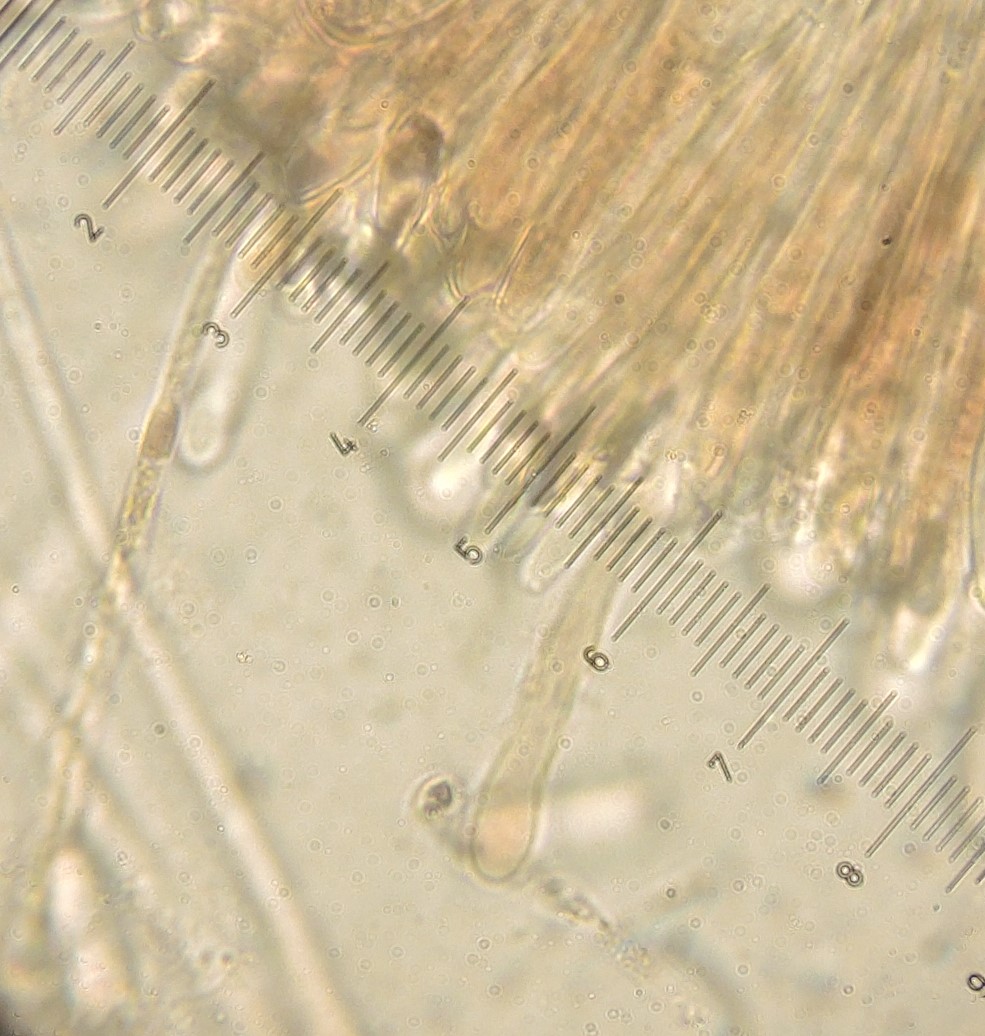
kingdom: Fungi
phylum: Ascomycota
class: Leotiomycetes
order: Helotiales
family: Rutstroemiaceae
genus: Rutstroemia
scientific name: Rutstroemia
